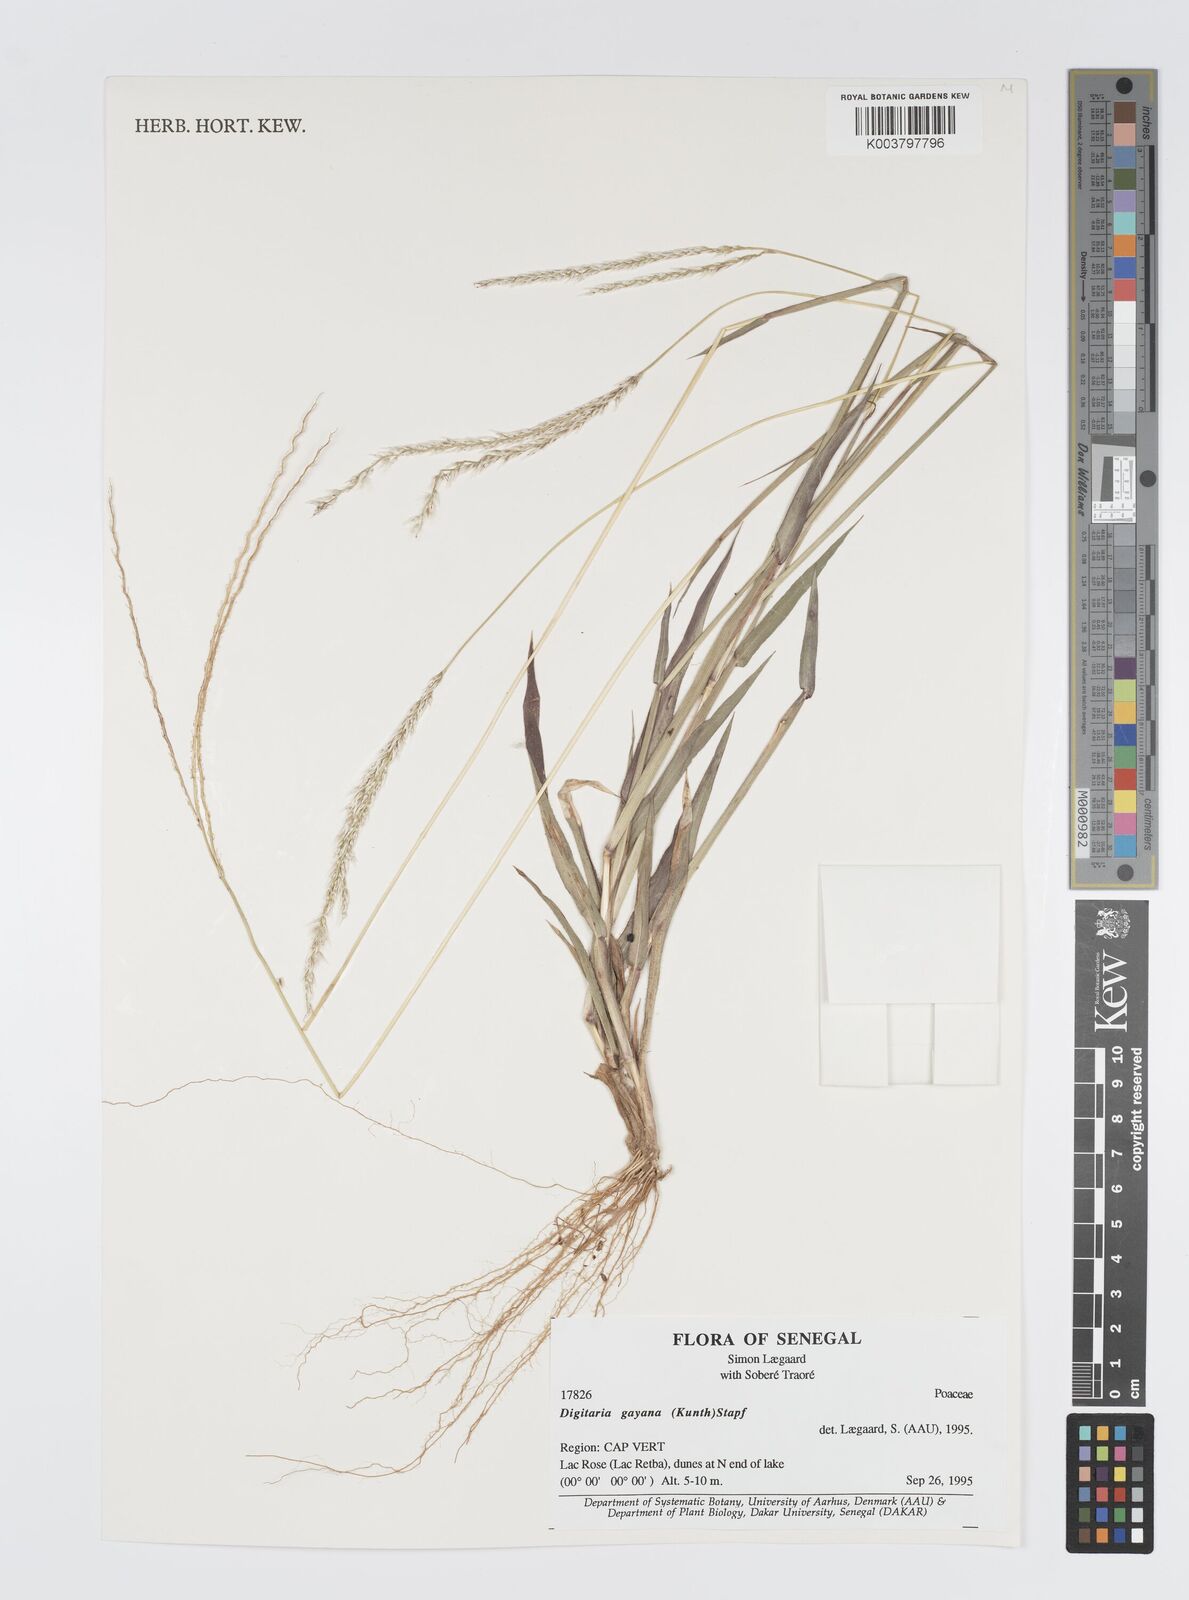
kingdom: Plantae
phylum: Tracheophyta
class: Liliopsida
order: Poales
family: Poaceae
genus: Digitaria
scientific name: Digitaria gayana
